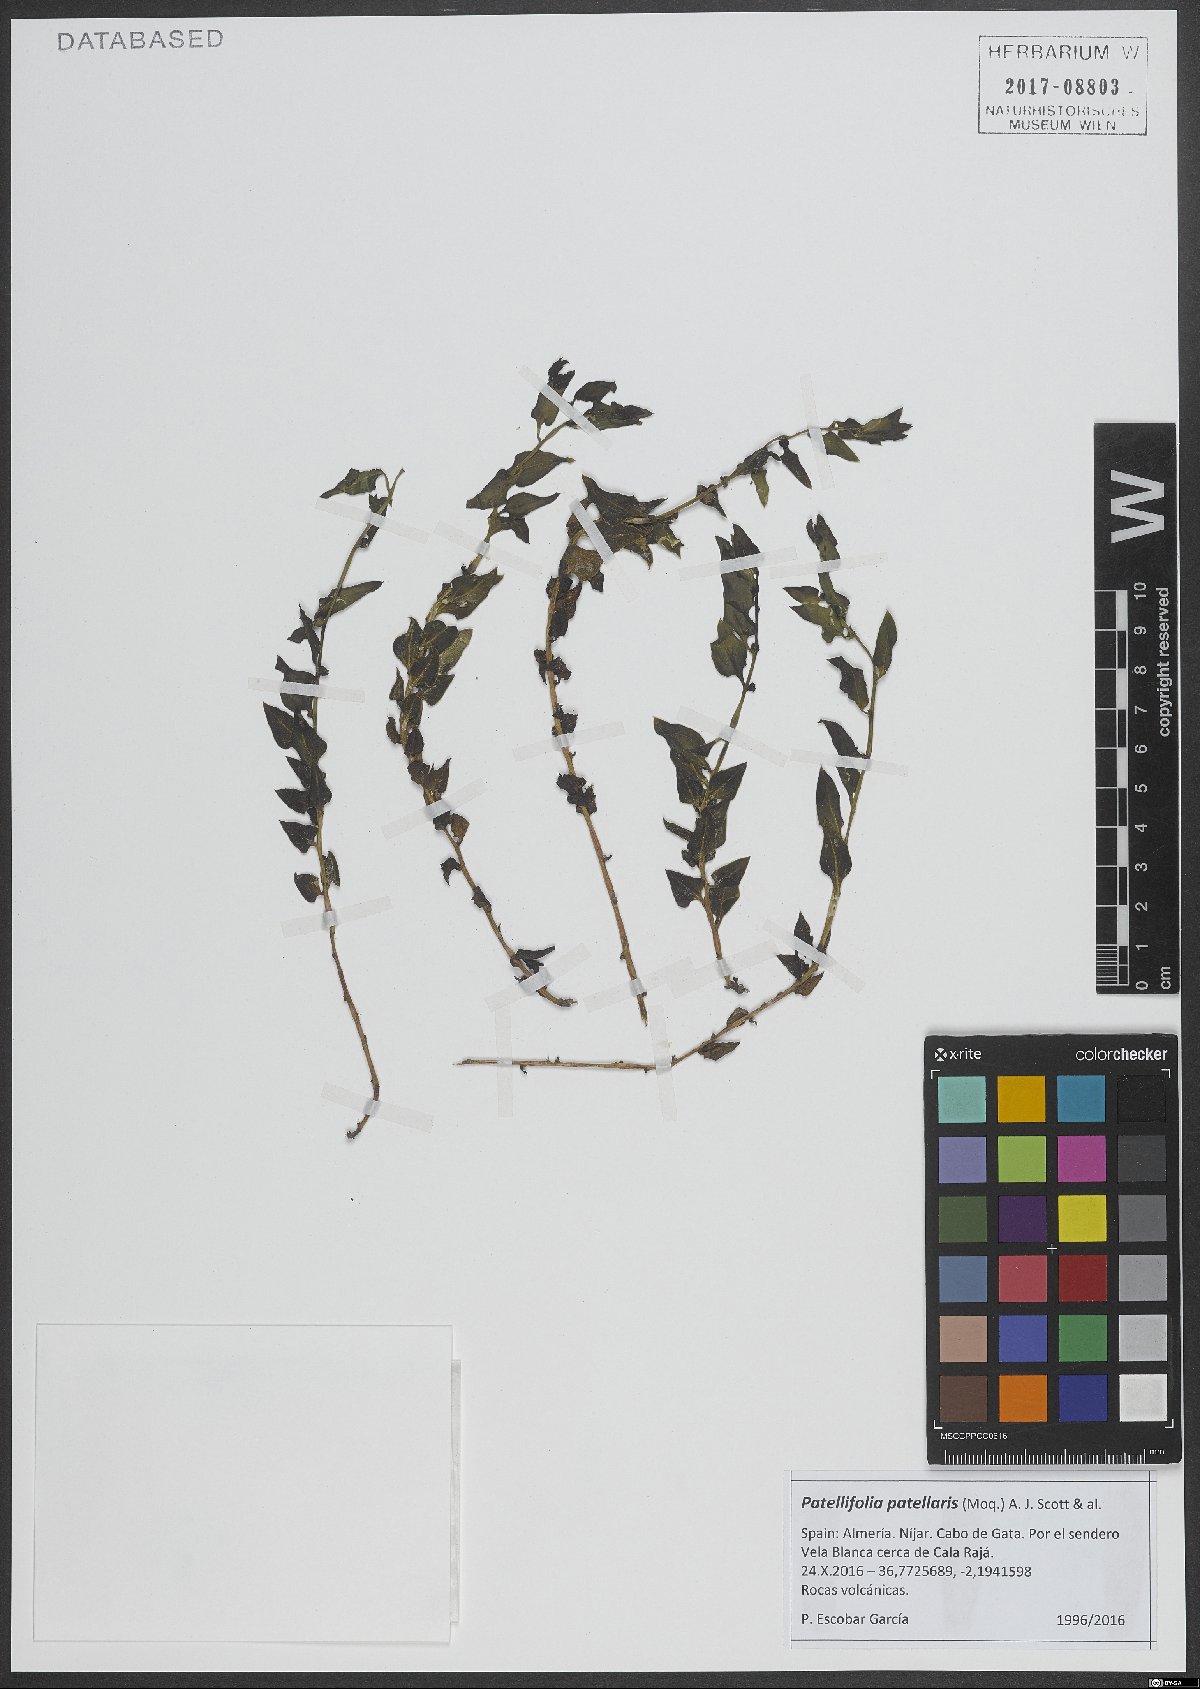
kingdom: Plantae
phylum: Tracheophyta
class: Magnoliopsida
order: Caryophyllales
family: Amaranthaceae
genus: Patellifolia
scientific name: Patellifolia procumbens
